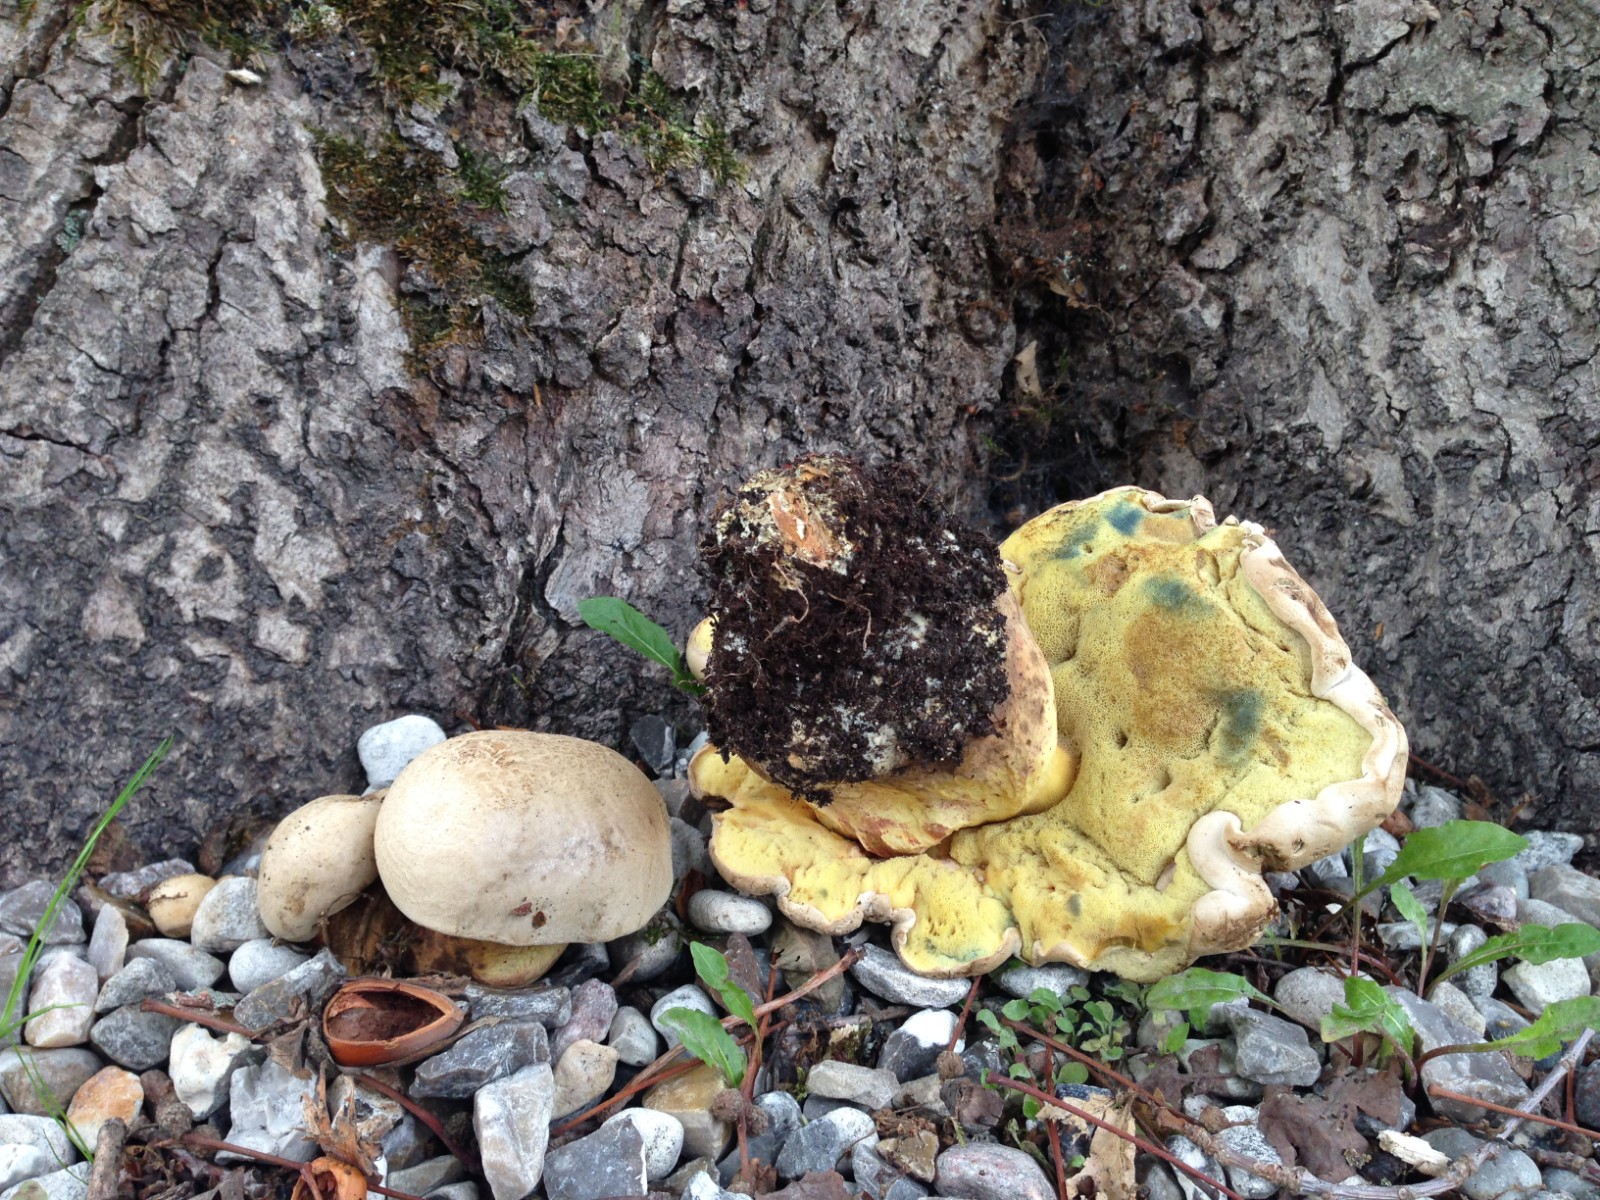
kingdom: Fungi
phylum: Basidiomycota
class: Agaricomycetes
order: Boletales
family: Boletaceae
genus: Caloboletus
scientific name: Caloboletus radicans
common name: rod-rørhat
